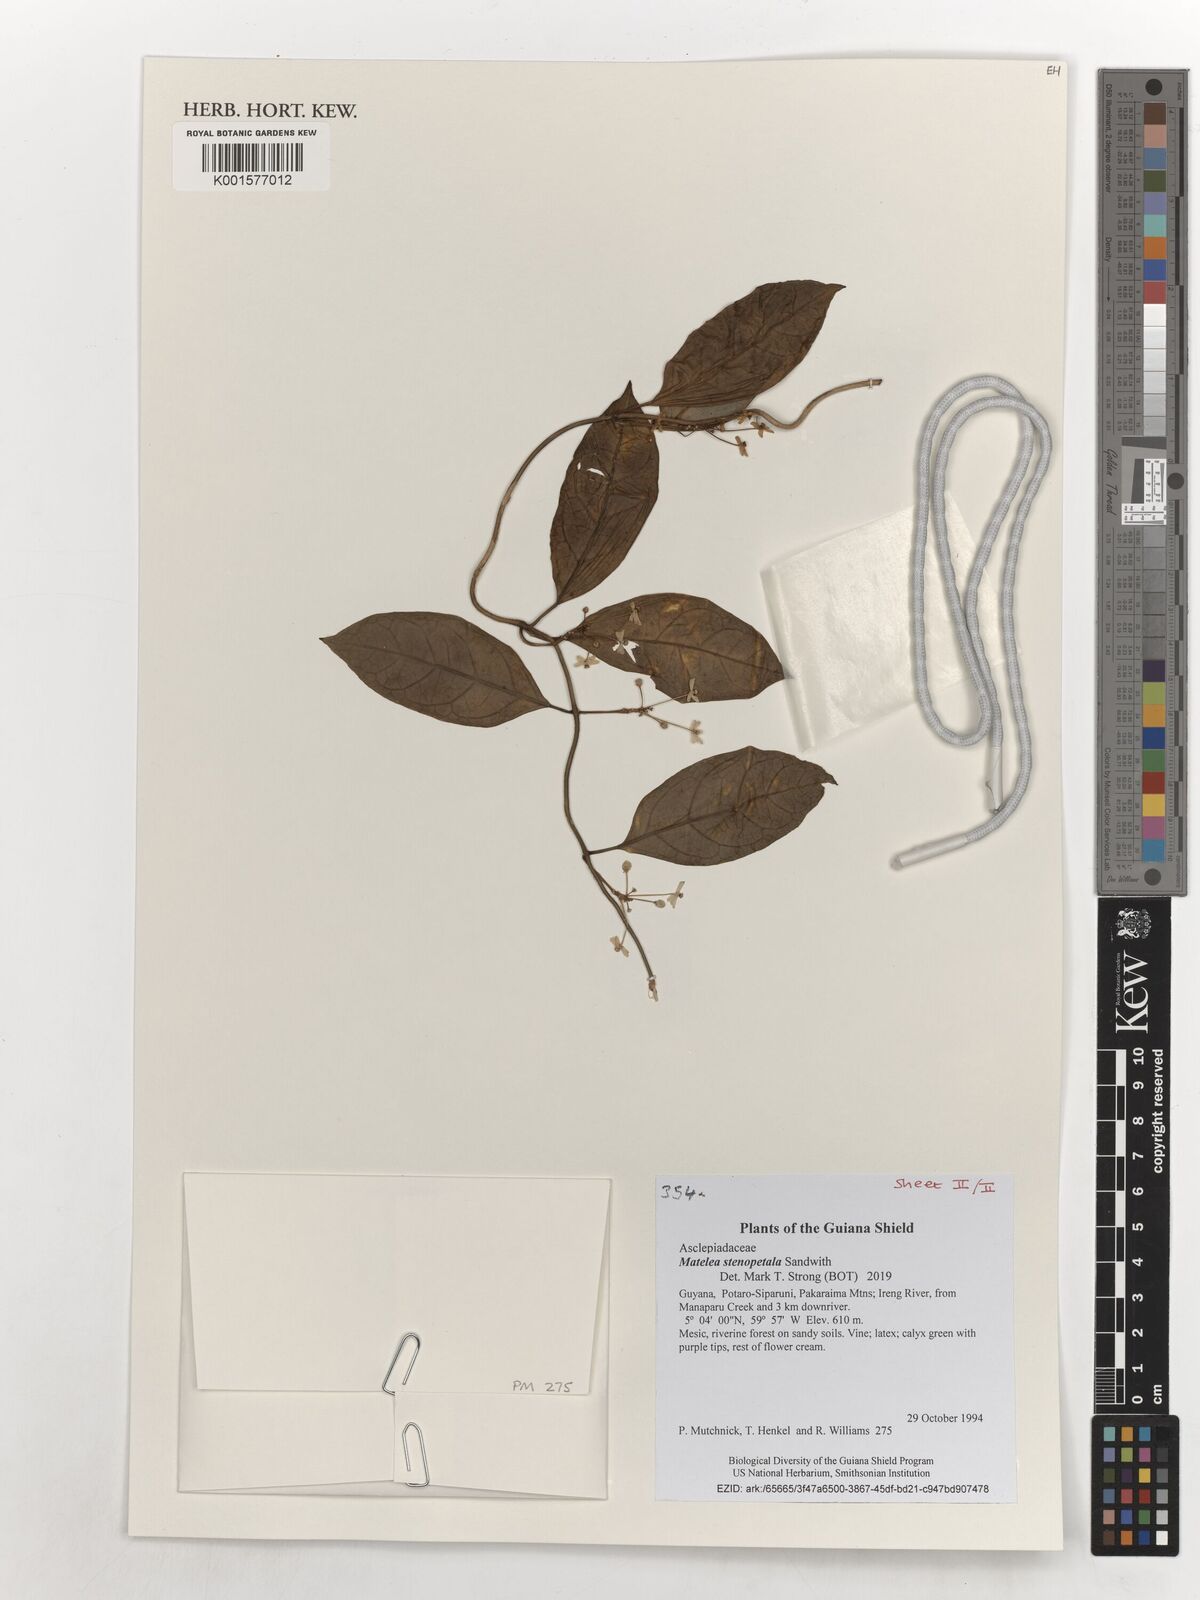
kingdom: Plantae
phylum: Tracheophyta
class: Magnoliopsida
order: Gentianales
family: Apocynaceae
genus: Matelea
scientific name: Matelea stenopetala
